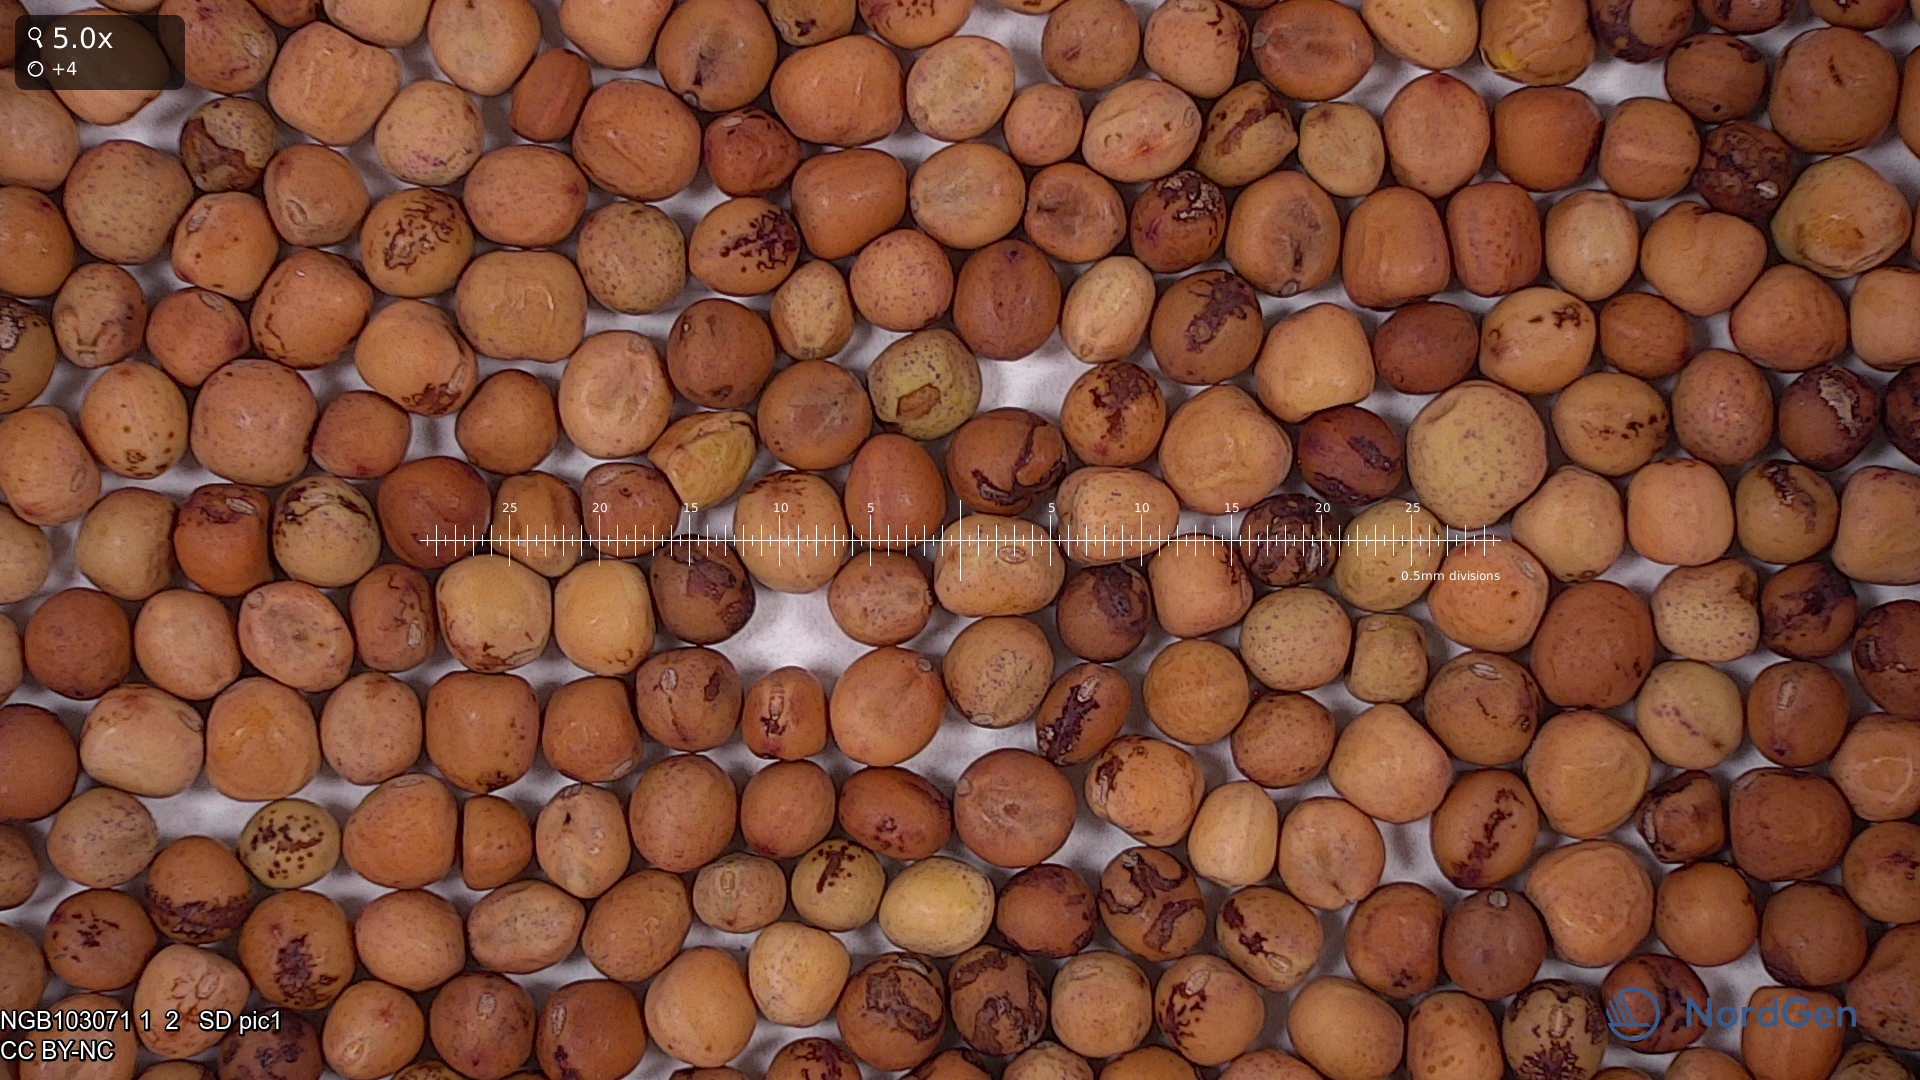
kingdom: Plantae
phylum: Tracheophyta
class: Magnoliopsida
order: Fabales
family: Fabaceae
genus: Lathyrus
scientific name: Lathyrus oleraceus
